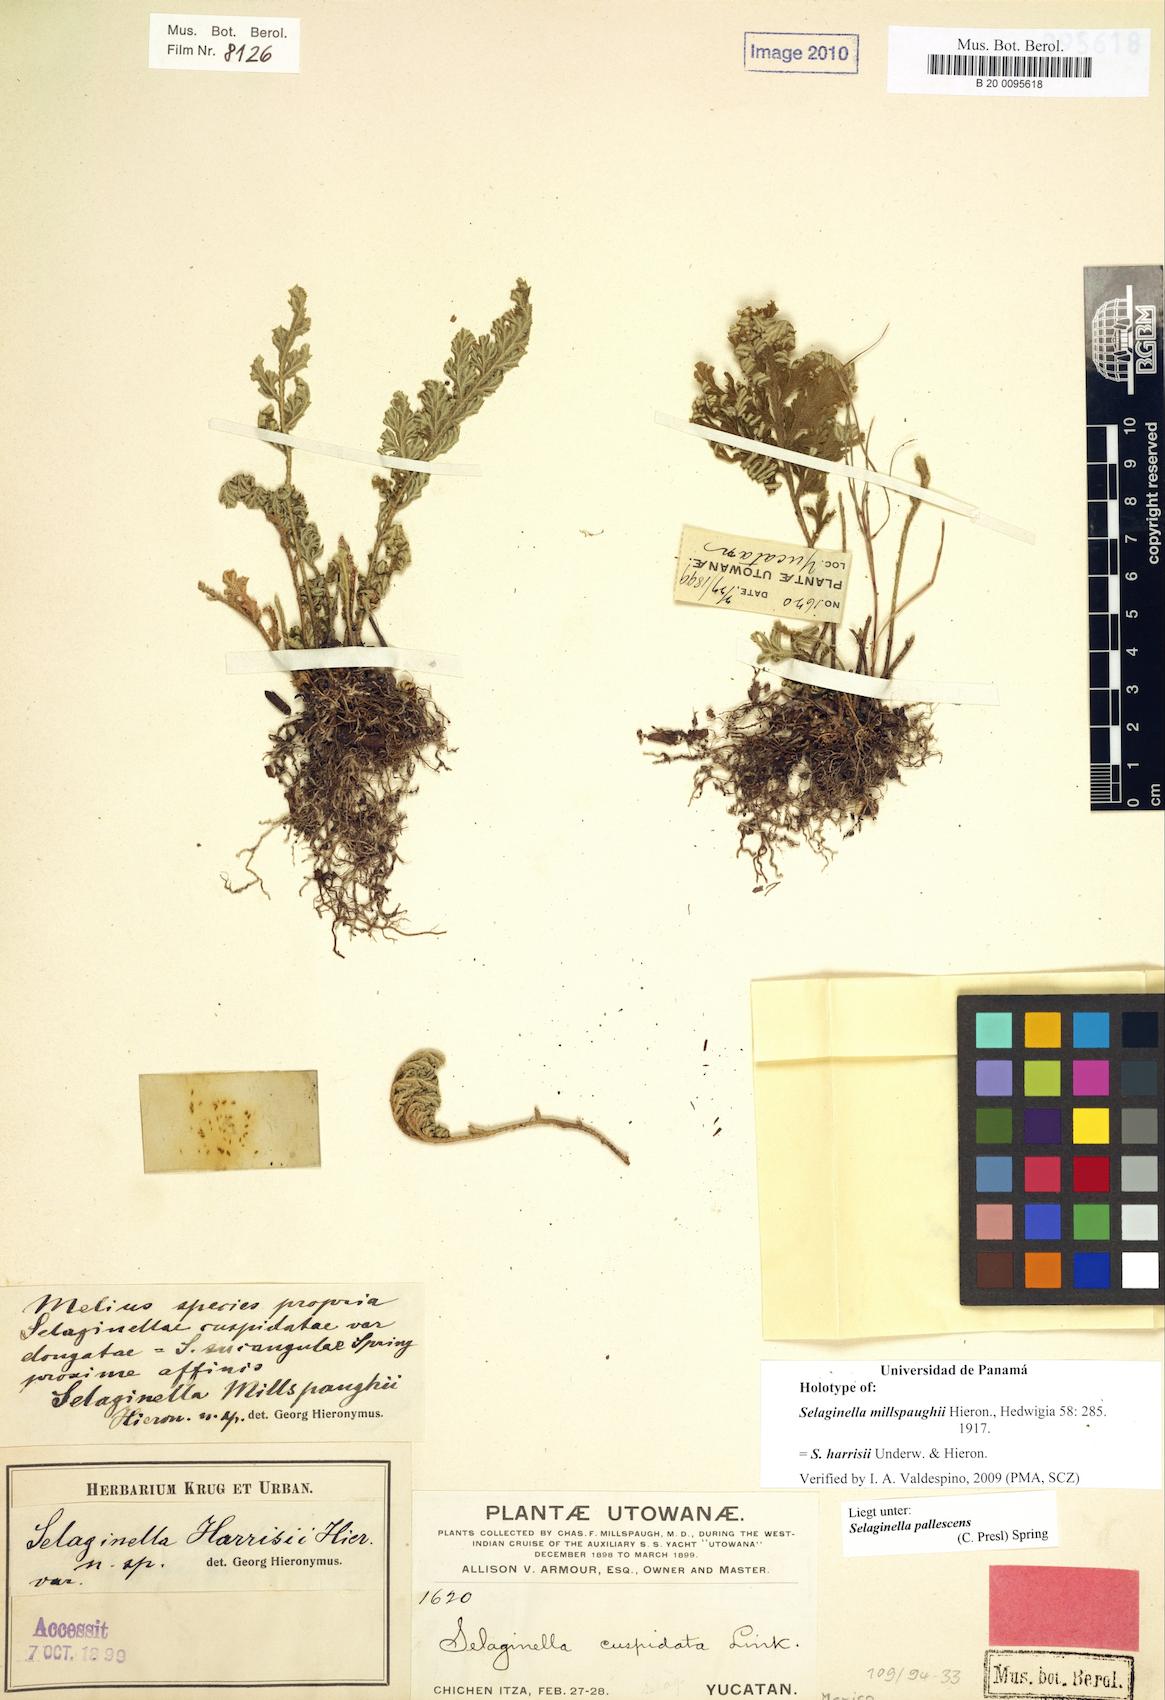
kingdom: Plantae
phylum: Tracheophyta
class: Lycopodiopsida
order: Selaginellales
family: Selaginellaceae
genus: Selaginella
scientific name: Selaginella harrisii
